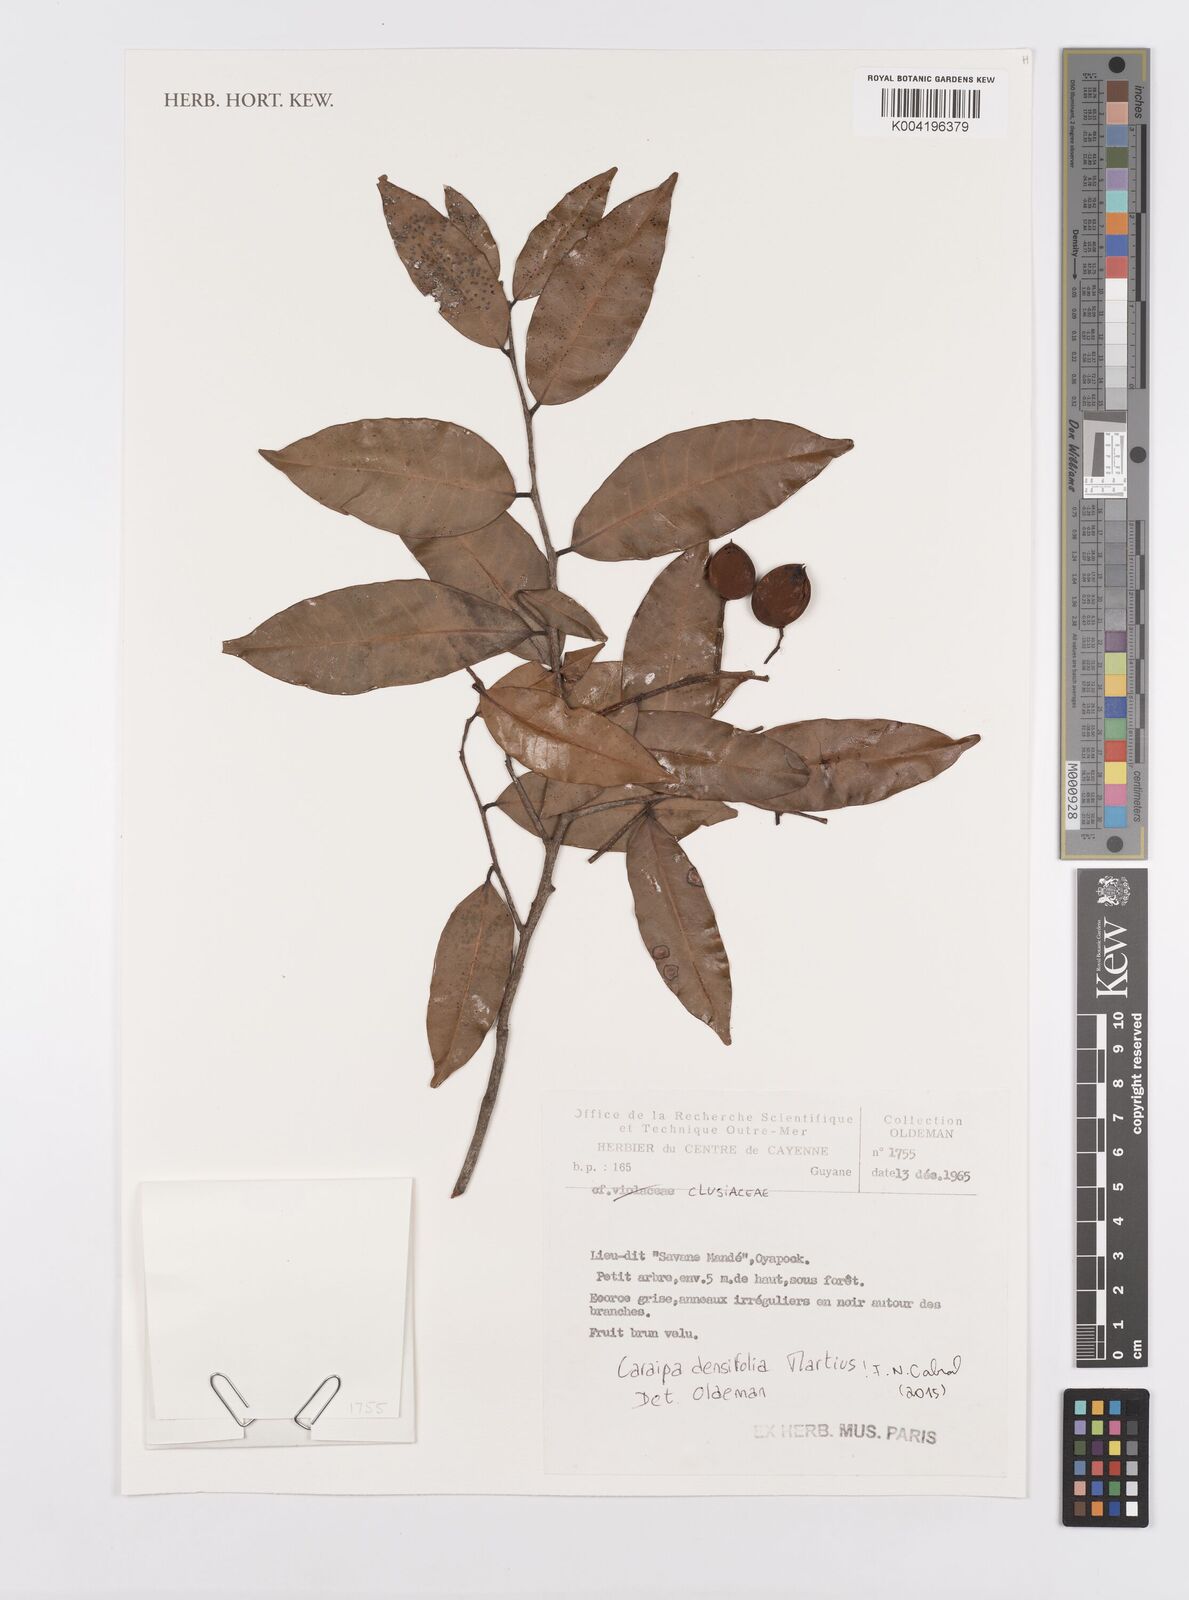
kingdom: Plantae
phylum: Tracheophyta
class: Magnoliopsida
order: Malpighiales
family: Calophyllaceae
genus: Caraipa
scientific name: Caraipa densifolia
